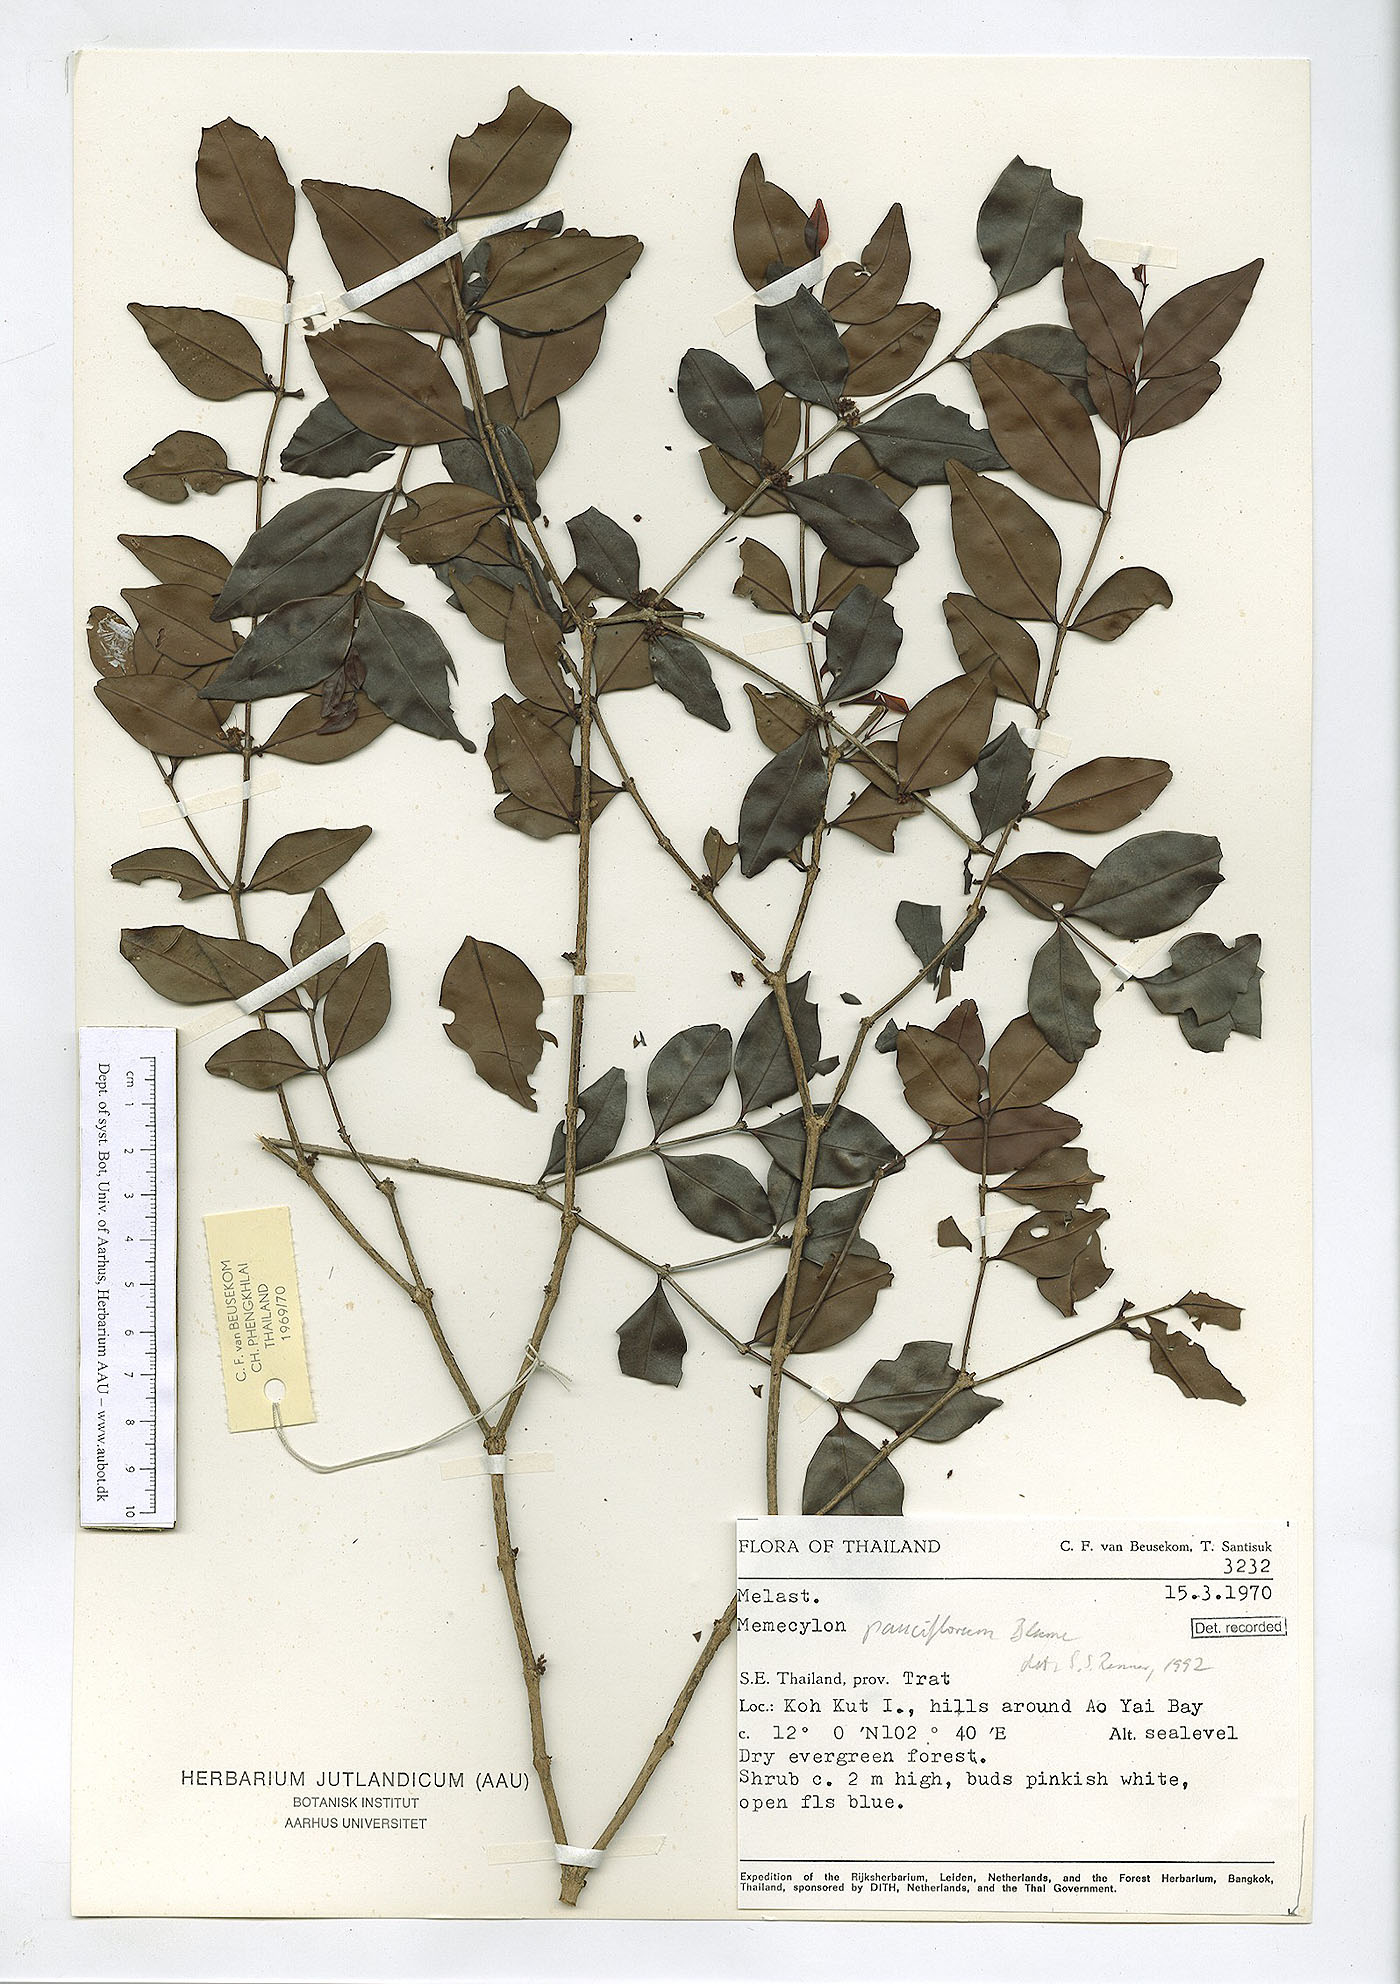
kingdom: Plantae
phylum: Tracheophyta
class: Magnoliopsida
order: Myrtales
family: Melastomataceae
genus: Memecylon
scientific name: Memecylon pauciflorum
